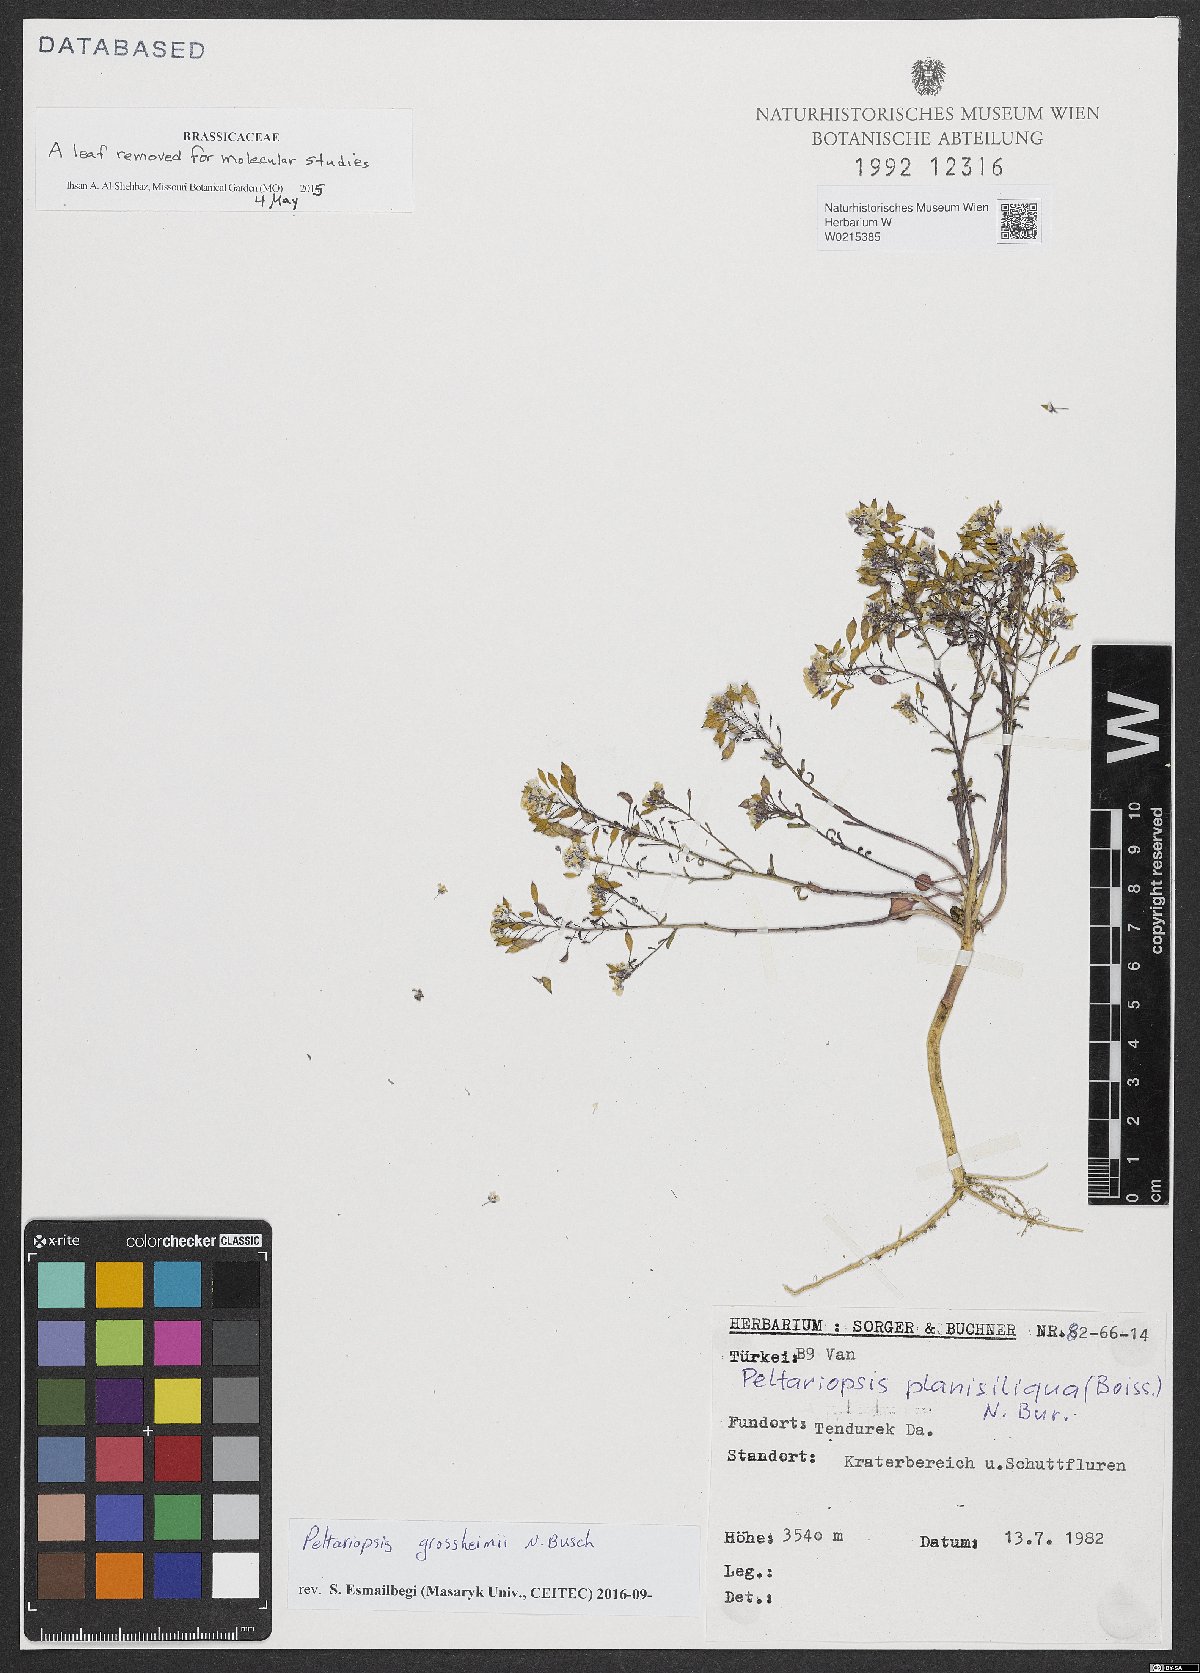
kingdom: Plantae
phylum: Tracheophyta
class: Magnoliopsida
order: Brassicales
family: Brassicaceae
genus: Peltariopsis
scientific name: Peltariopsis grossheimii
